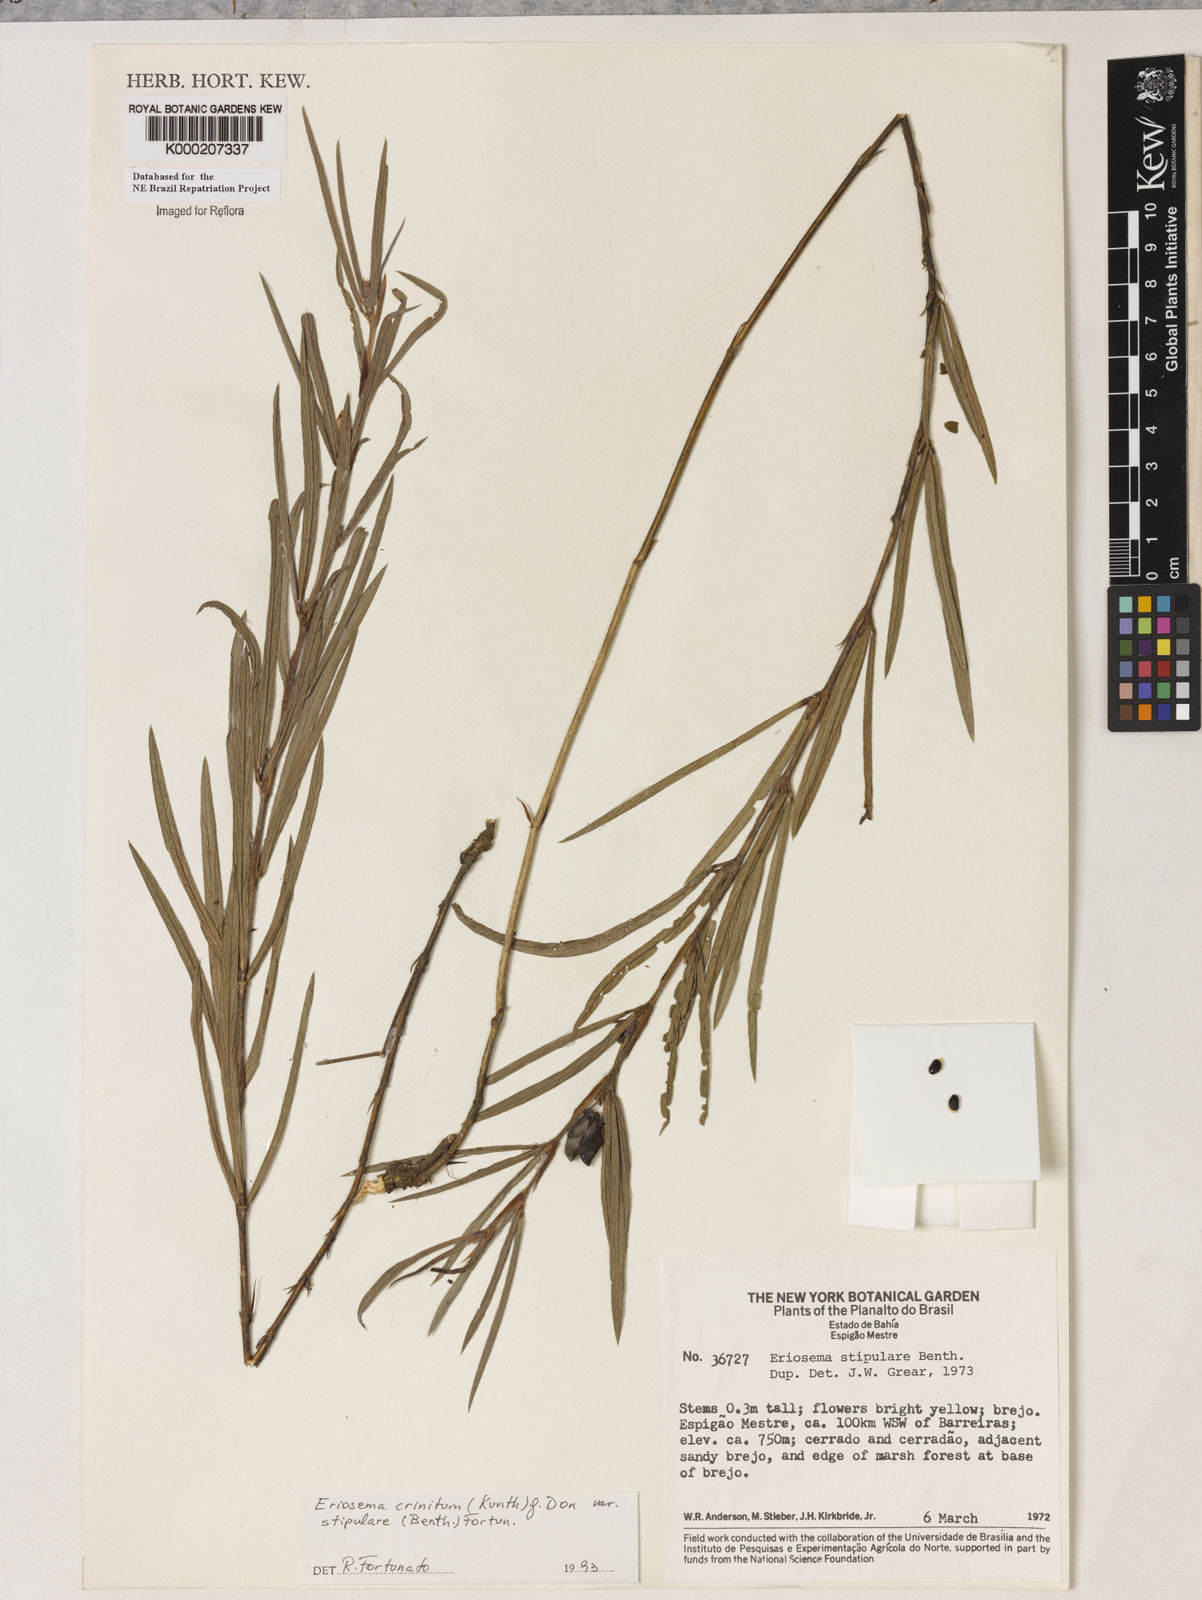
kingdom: Plantae
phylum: Tracheophyta
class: Magnoliopsida
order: Fabales
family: Fabaceae
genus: Eriosema
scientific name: Eriosema crinitum
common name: Sand pea
